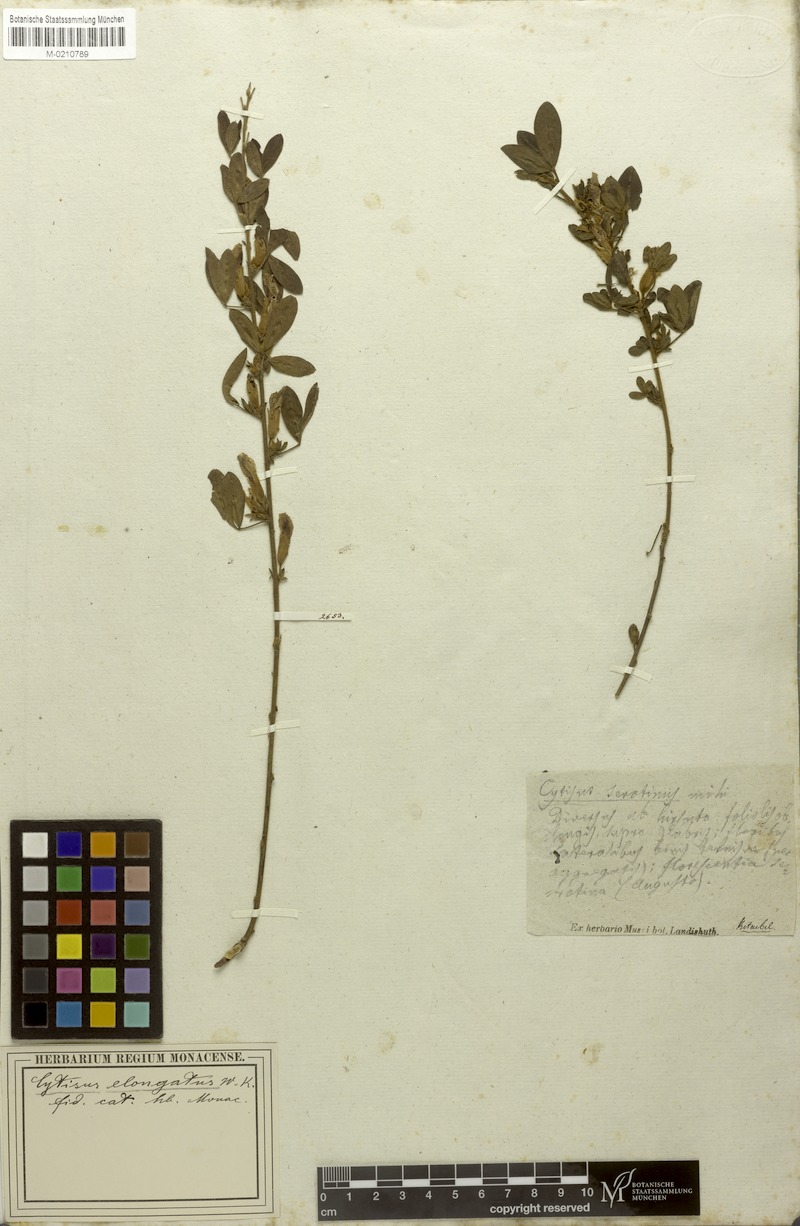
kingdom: Plantae
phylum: Tracheophyta
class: Magnoliopsida
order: Fabales
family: Fabaceae
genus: Chamaecytisus
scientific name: Chamaecytisus elongatus
